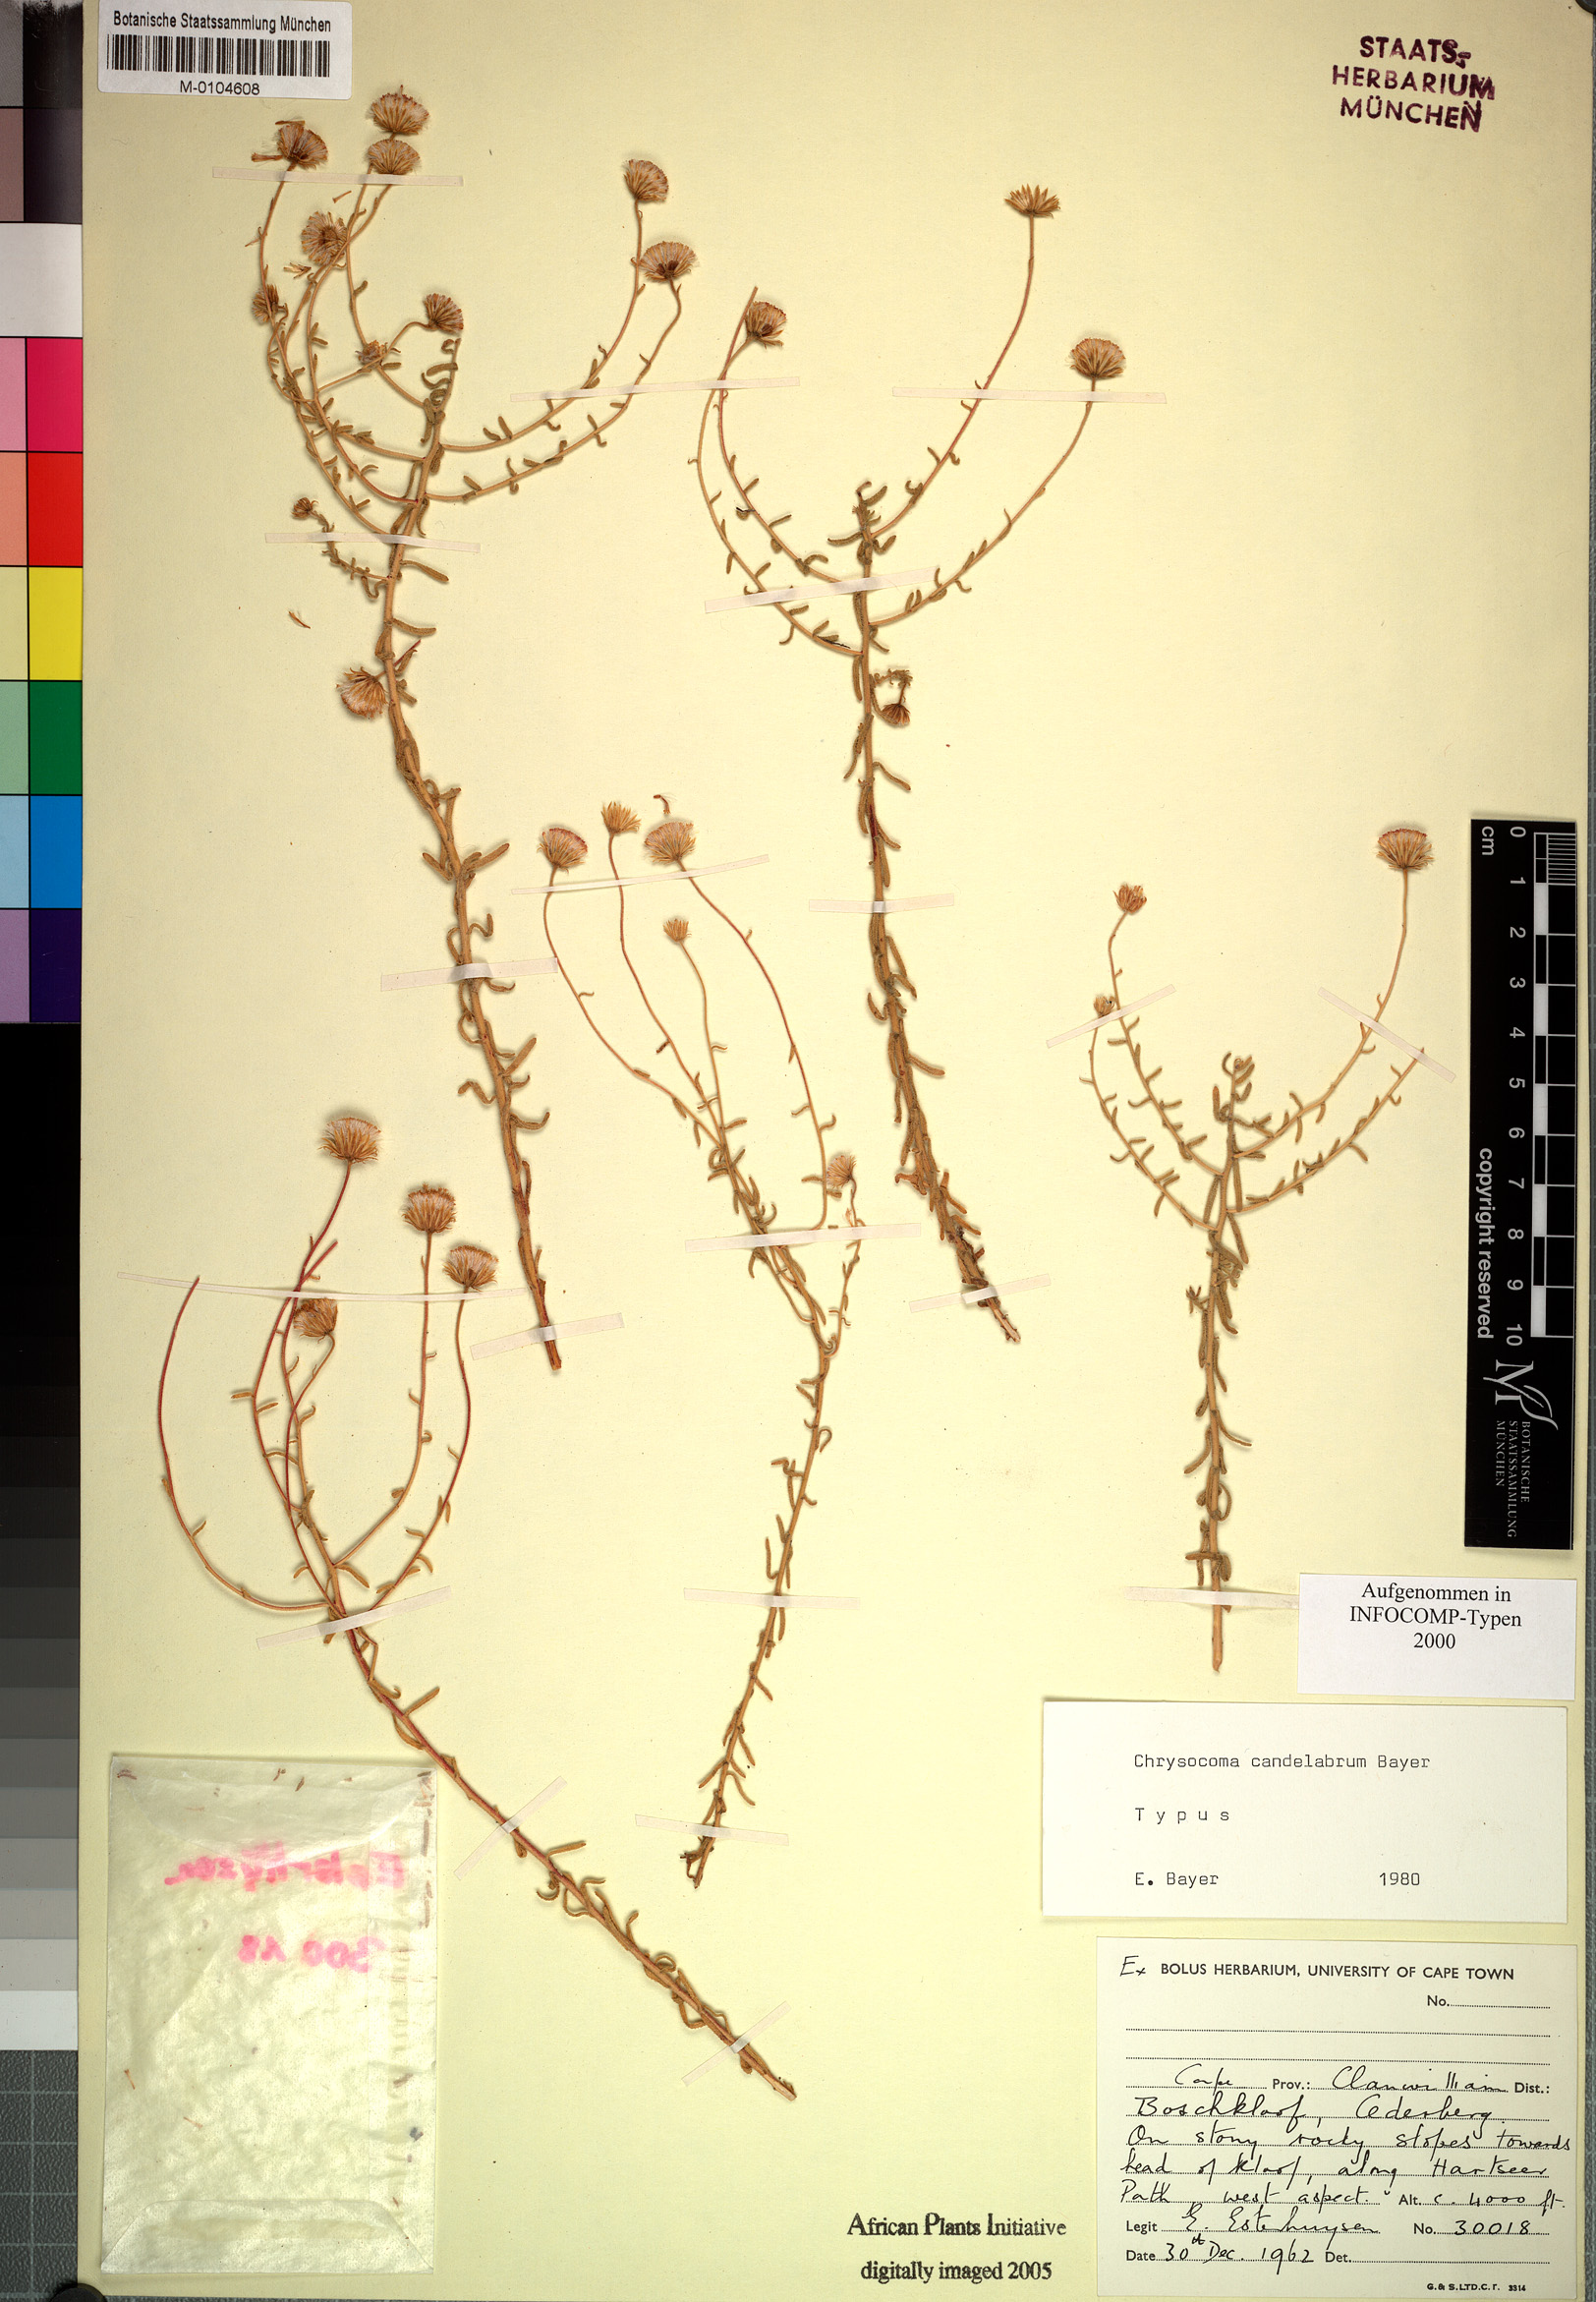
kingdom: Plantae
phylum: Tracheophyta
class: Magnoliopsida
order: Asterales
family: Asteraceae
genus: Chrysocoma
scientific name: Chrysocoma candelabrum
